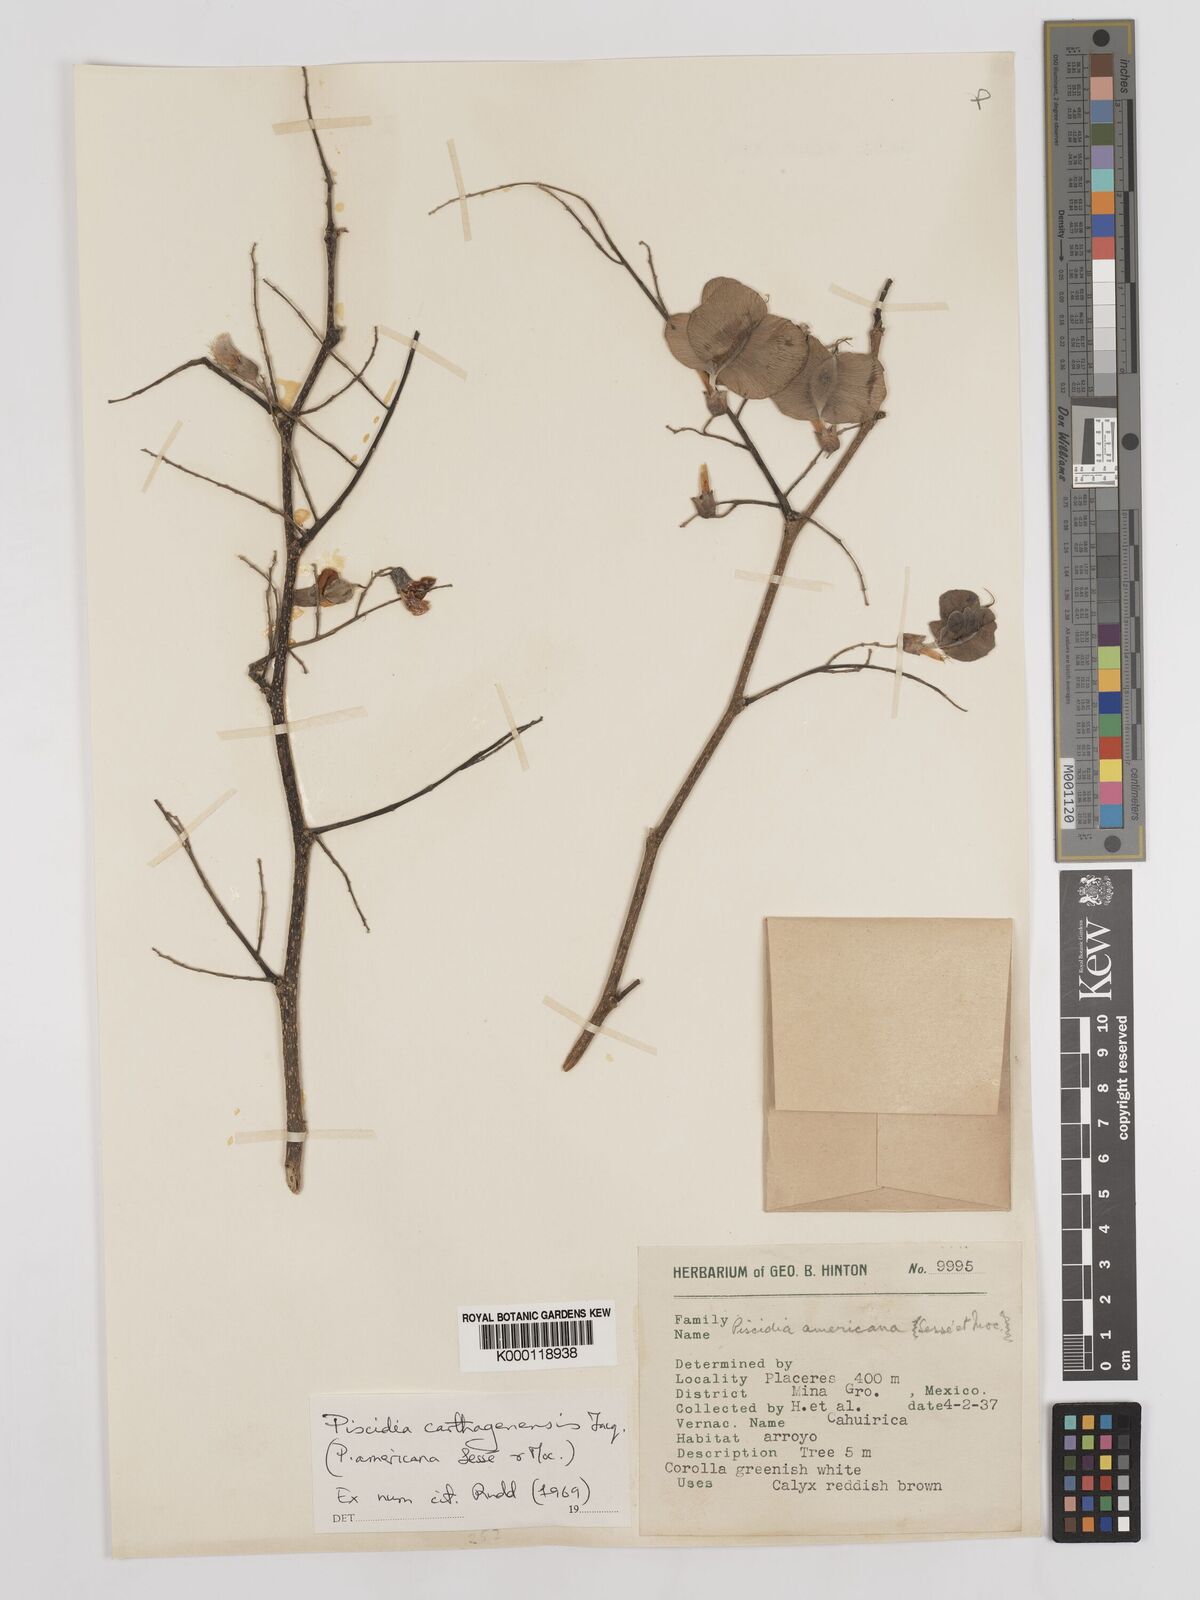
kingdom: Plantae
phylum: Tracheophyta
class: Magnoliopsida
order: Fabales
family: Fabaceae
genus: Piscidia
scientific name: Piscidia carthagenensis
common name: Stinkwood
